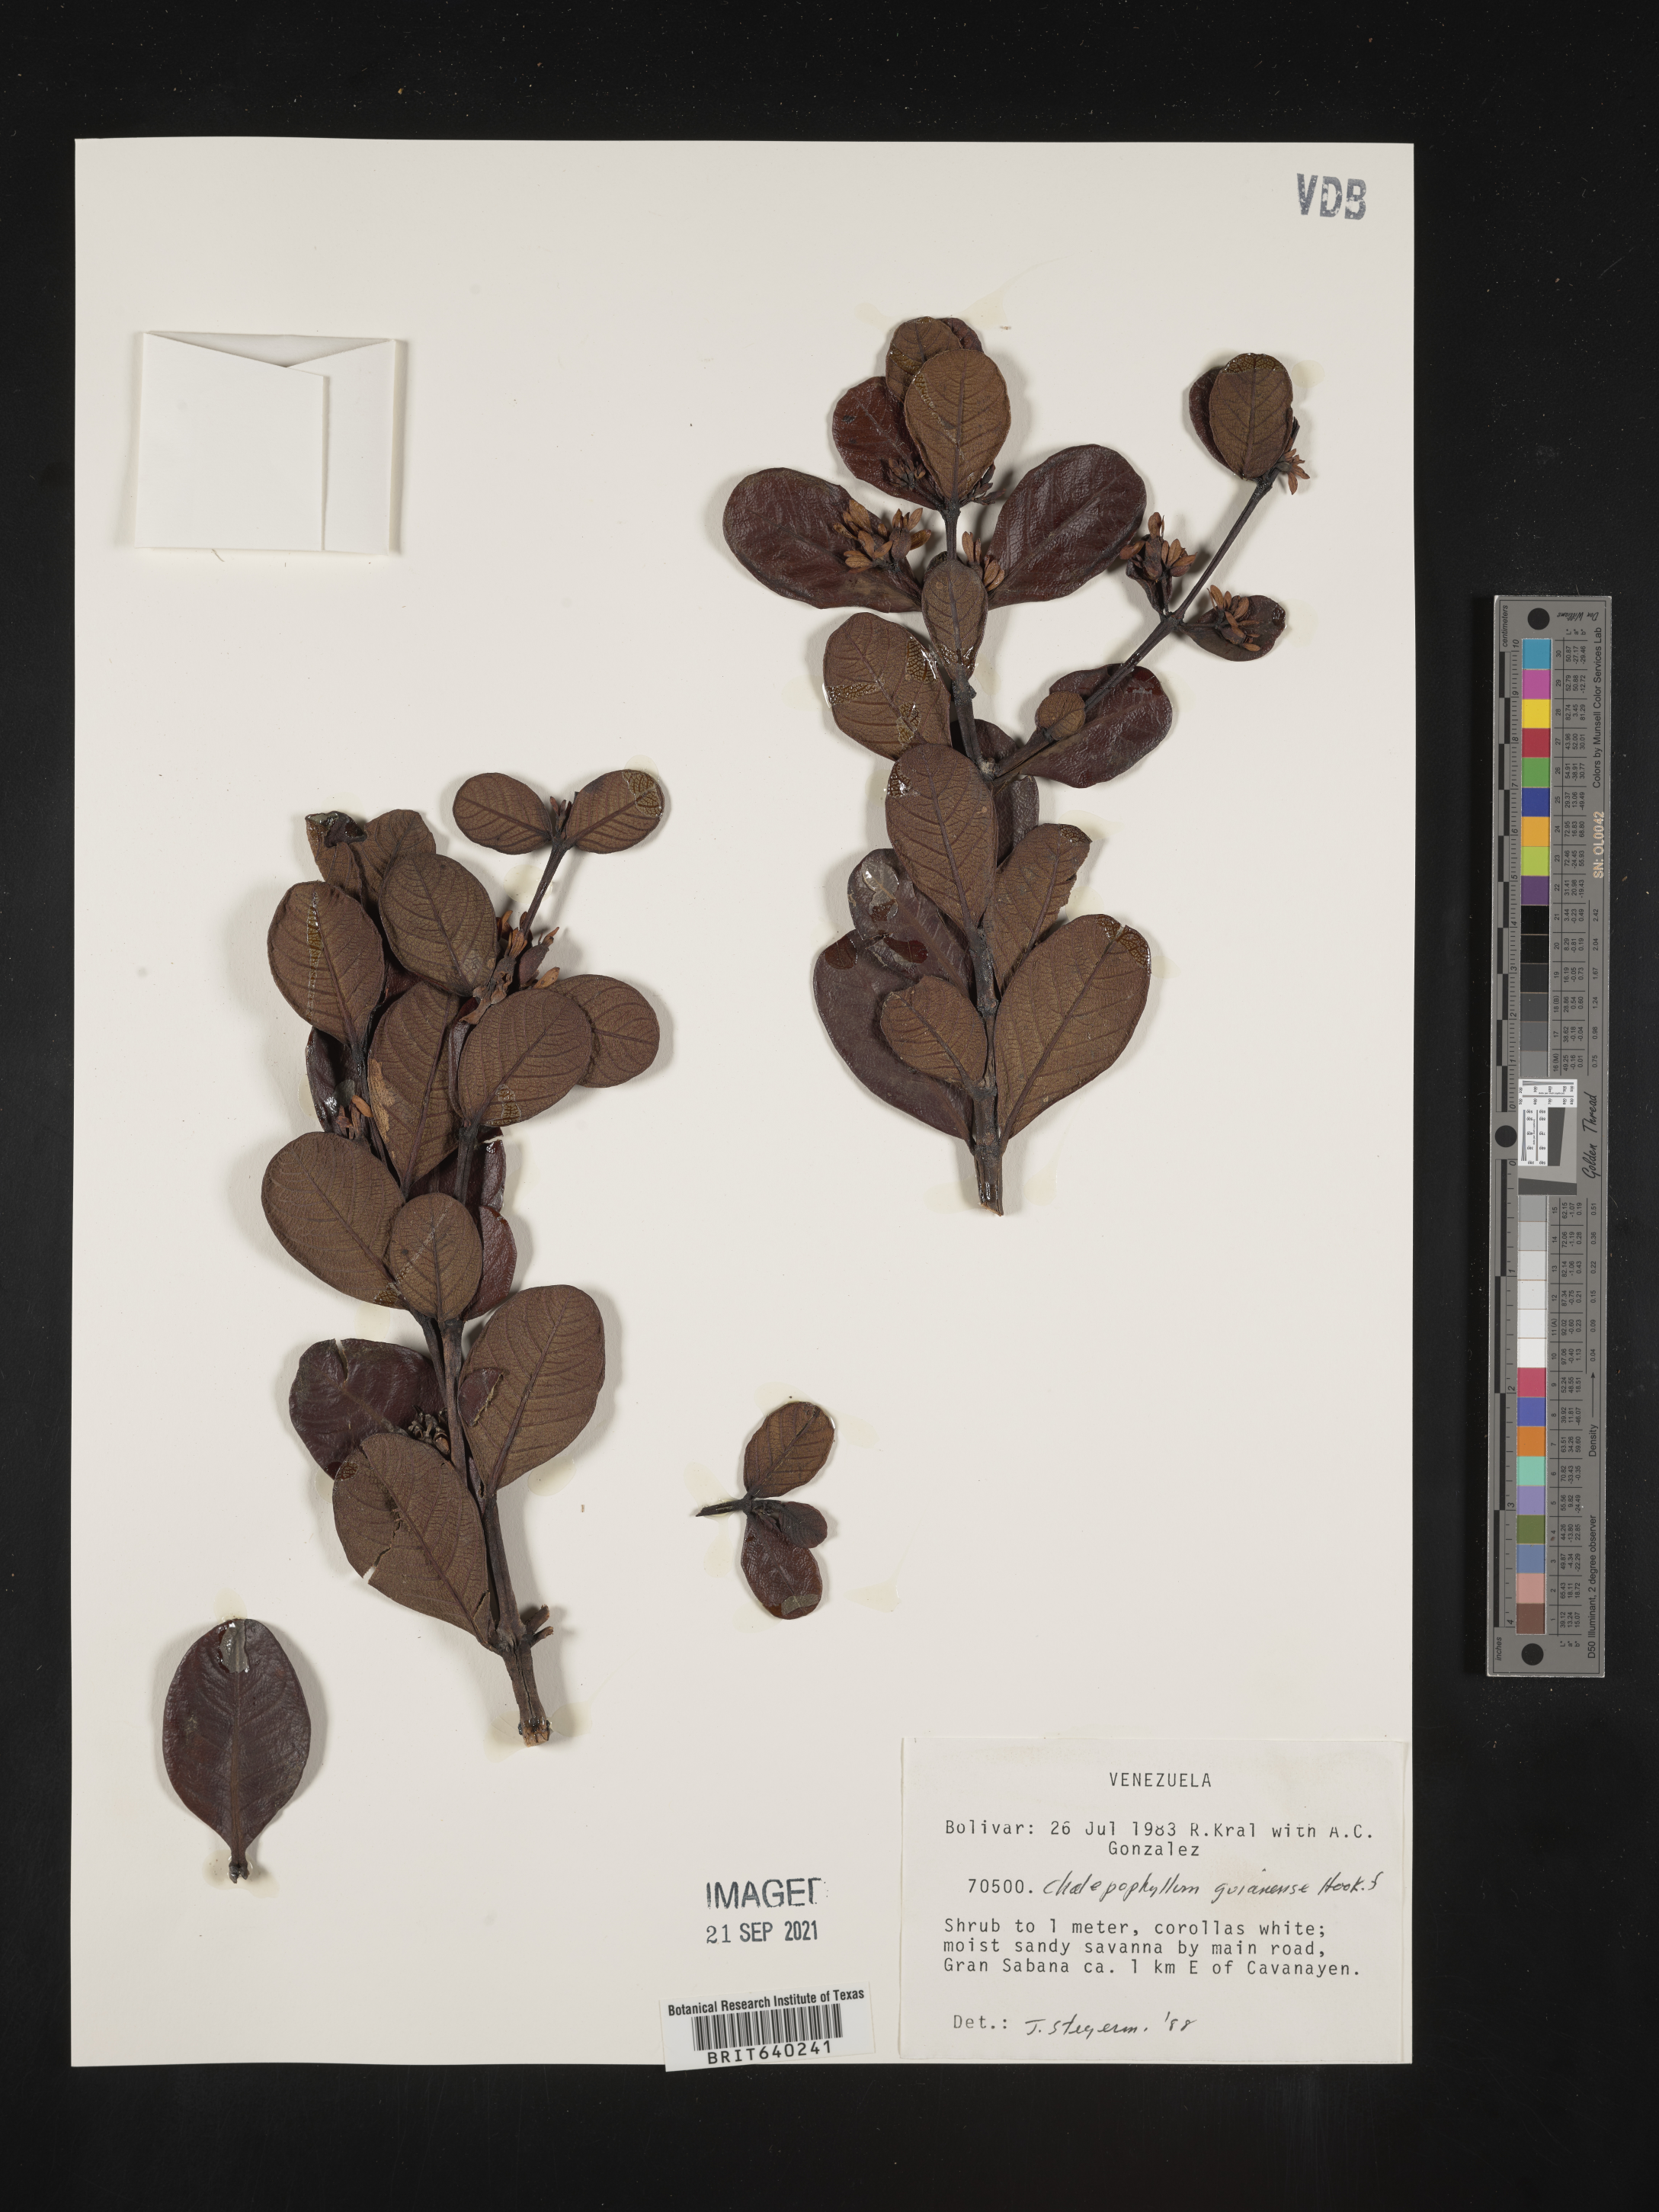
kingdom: Plantae
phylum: Tracheophyta
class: Magnoliopsida
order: Gentianales
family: Rubiaceae
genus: Chalepophyllum
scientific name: Chalepophyllum
